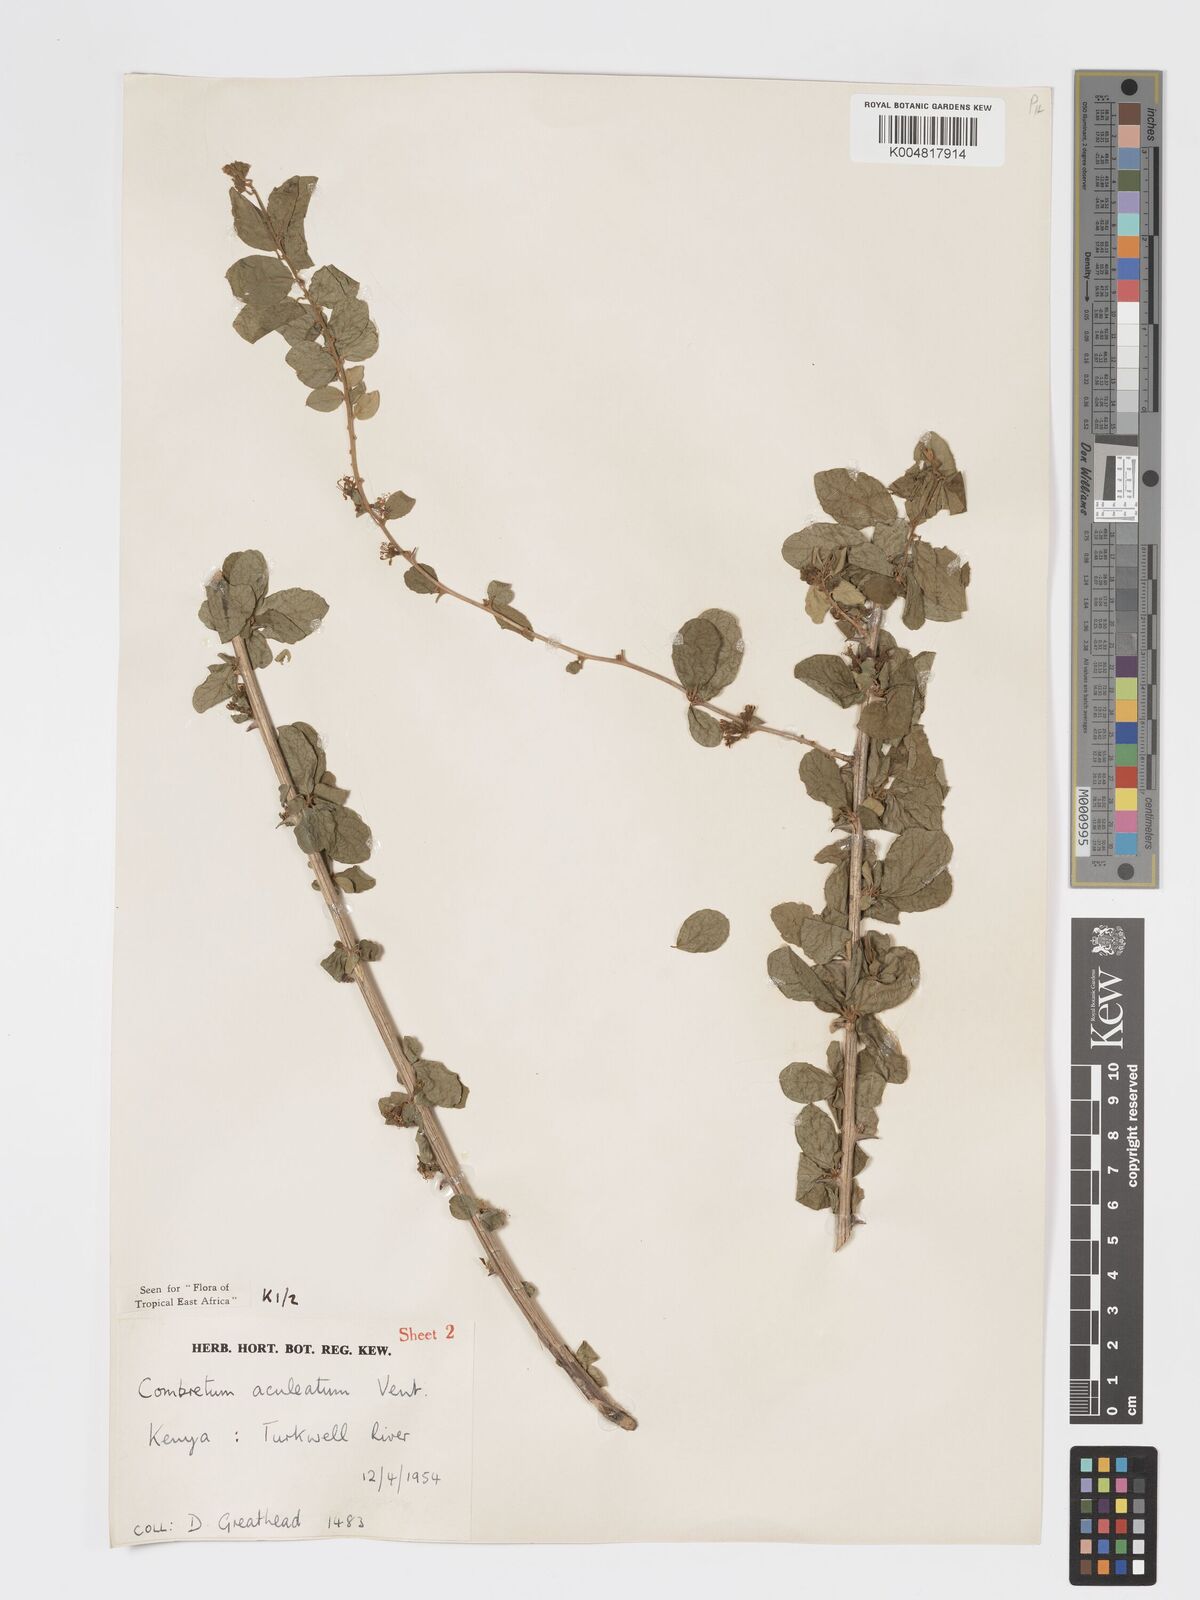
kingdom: Plantae
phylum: Tracheophyta
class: Magnoliopsida
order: Myrtales
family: Combretaceae
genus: Combretum
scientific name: Combretum aculeatum
